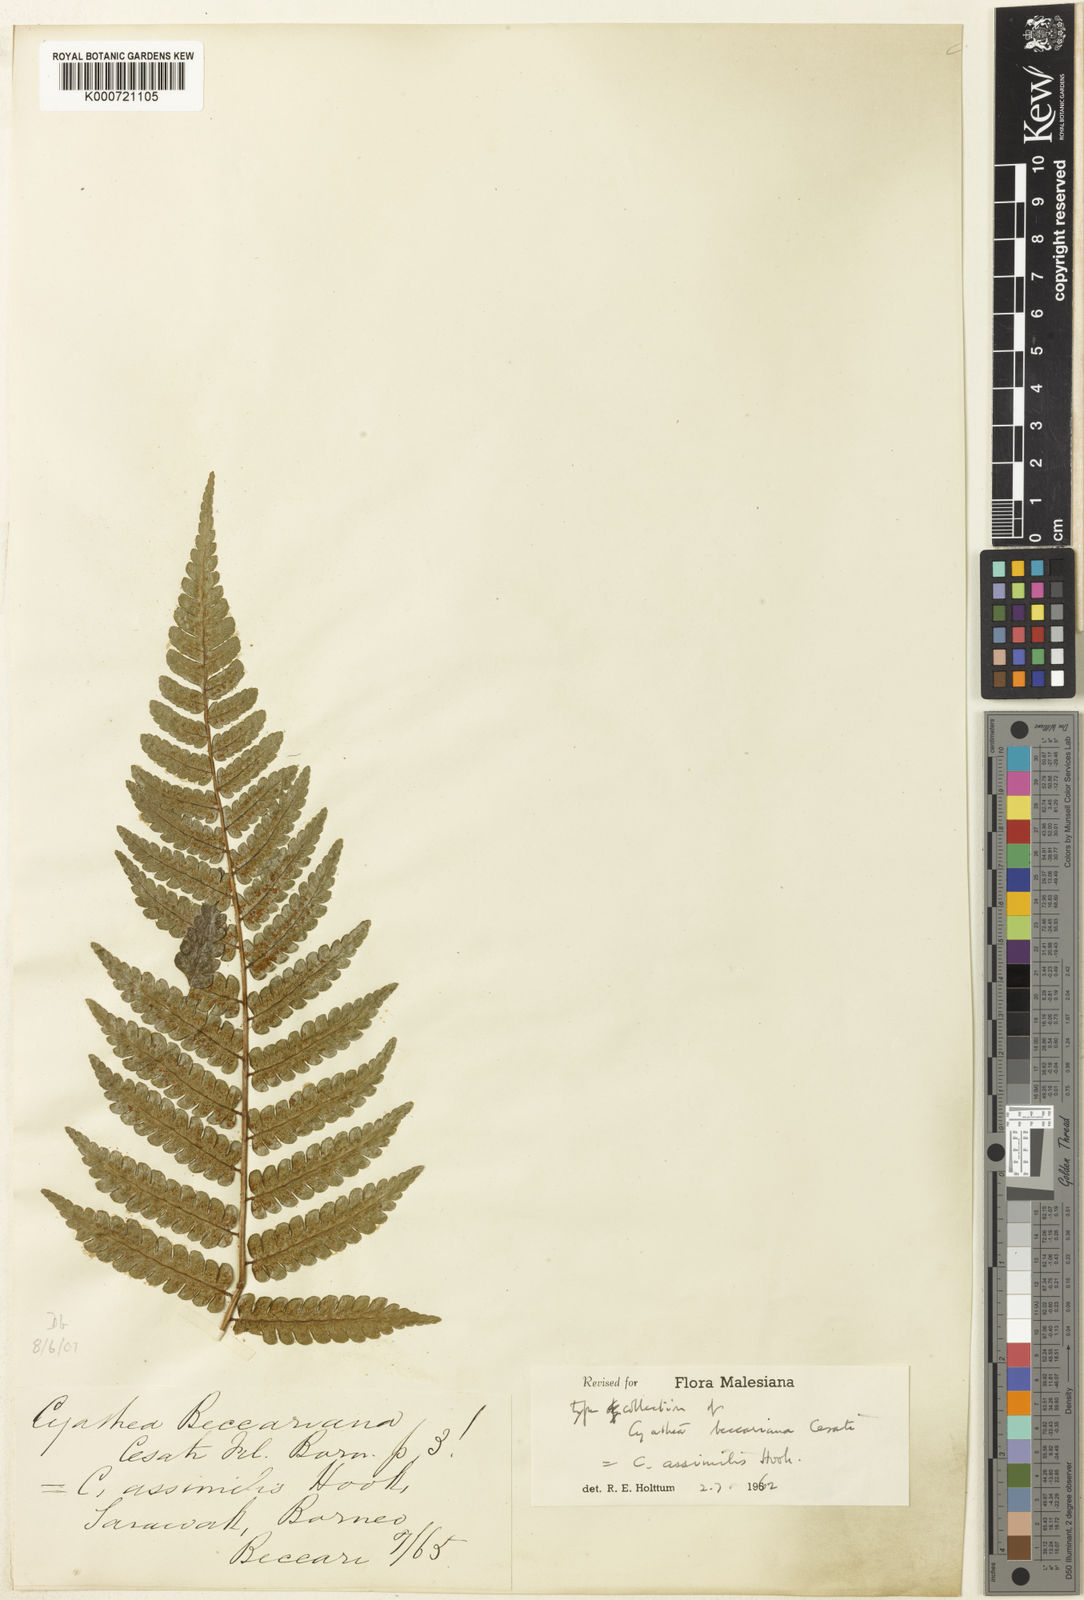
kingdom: Plantae
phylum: Tracheophyta
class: Polypodiopsida
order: Cyatheales
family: Cyatheaceae
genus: Sphaeropteris
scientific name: Sphaeropteris assimilis
